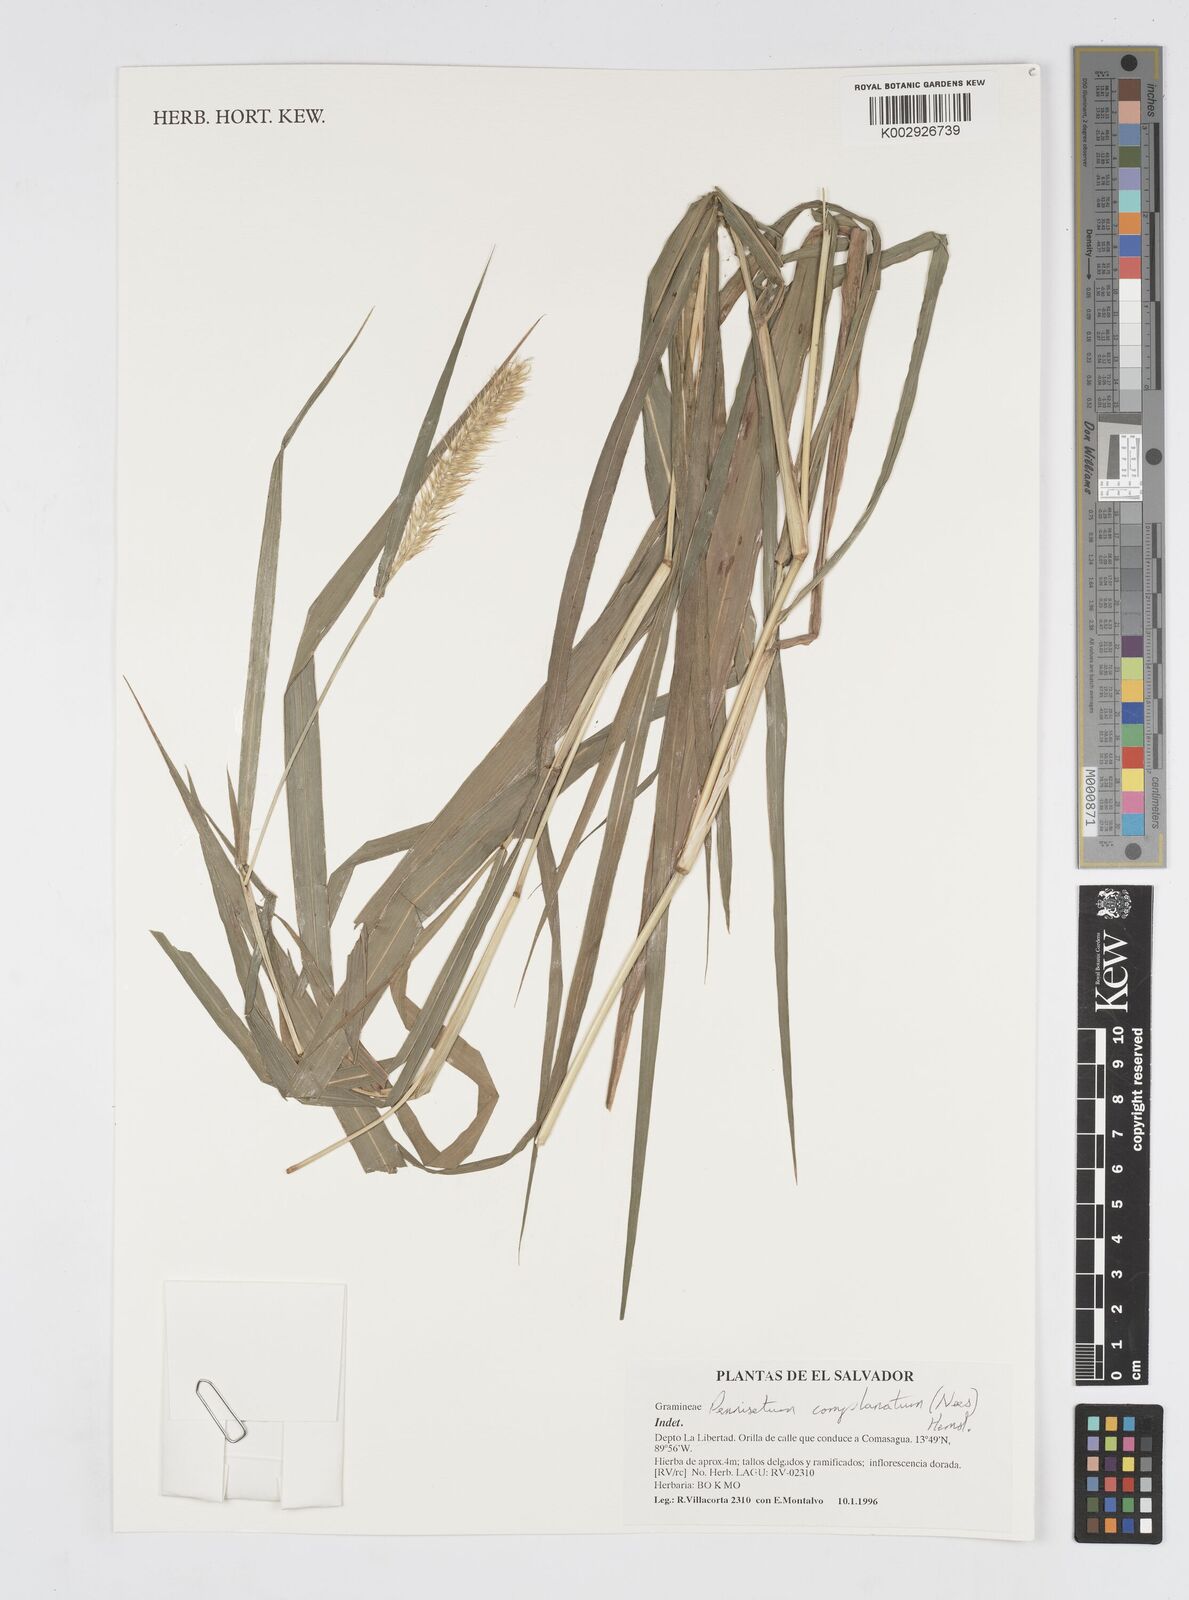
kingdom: Plantae
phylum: Tracheophyta
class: Liliopsida
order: Poales
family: Poaceae
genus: Cenchrus
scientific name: Cenchrus complanatus
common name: Nicaraguan fountaingrass
